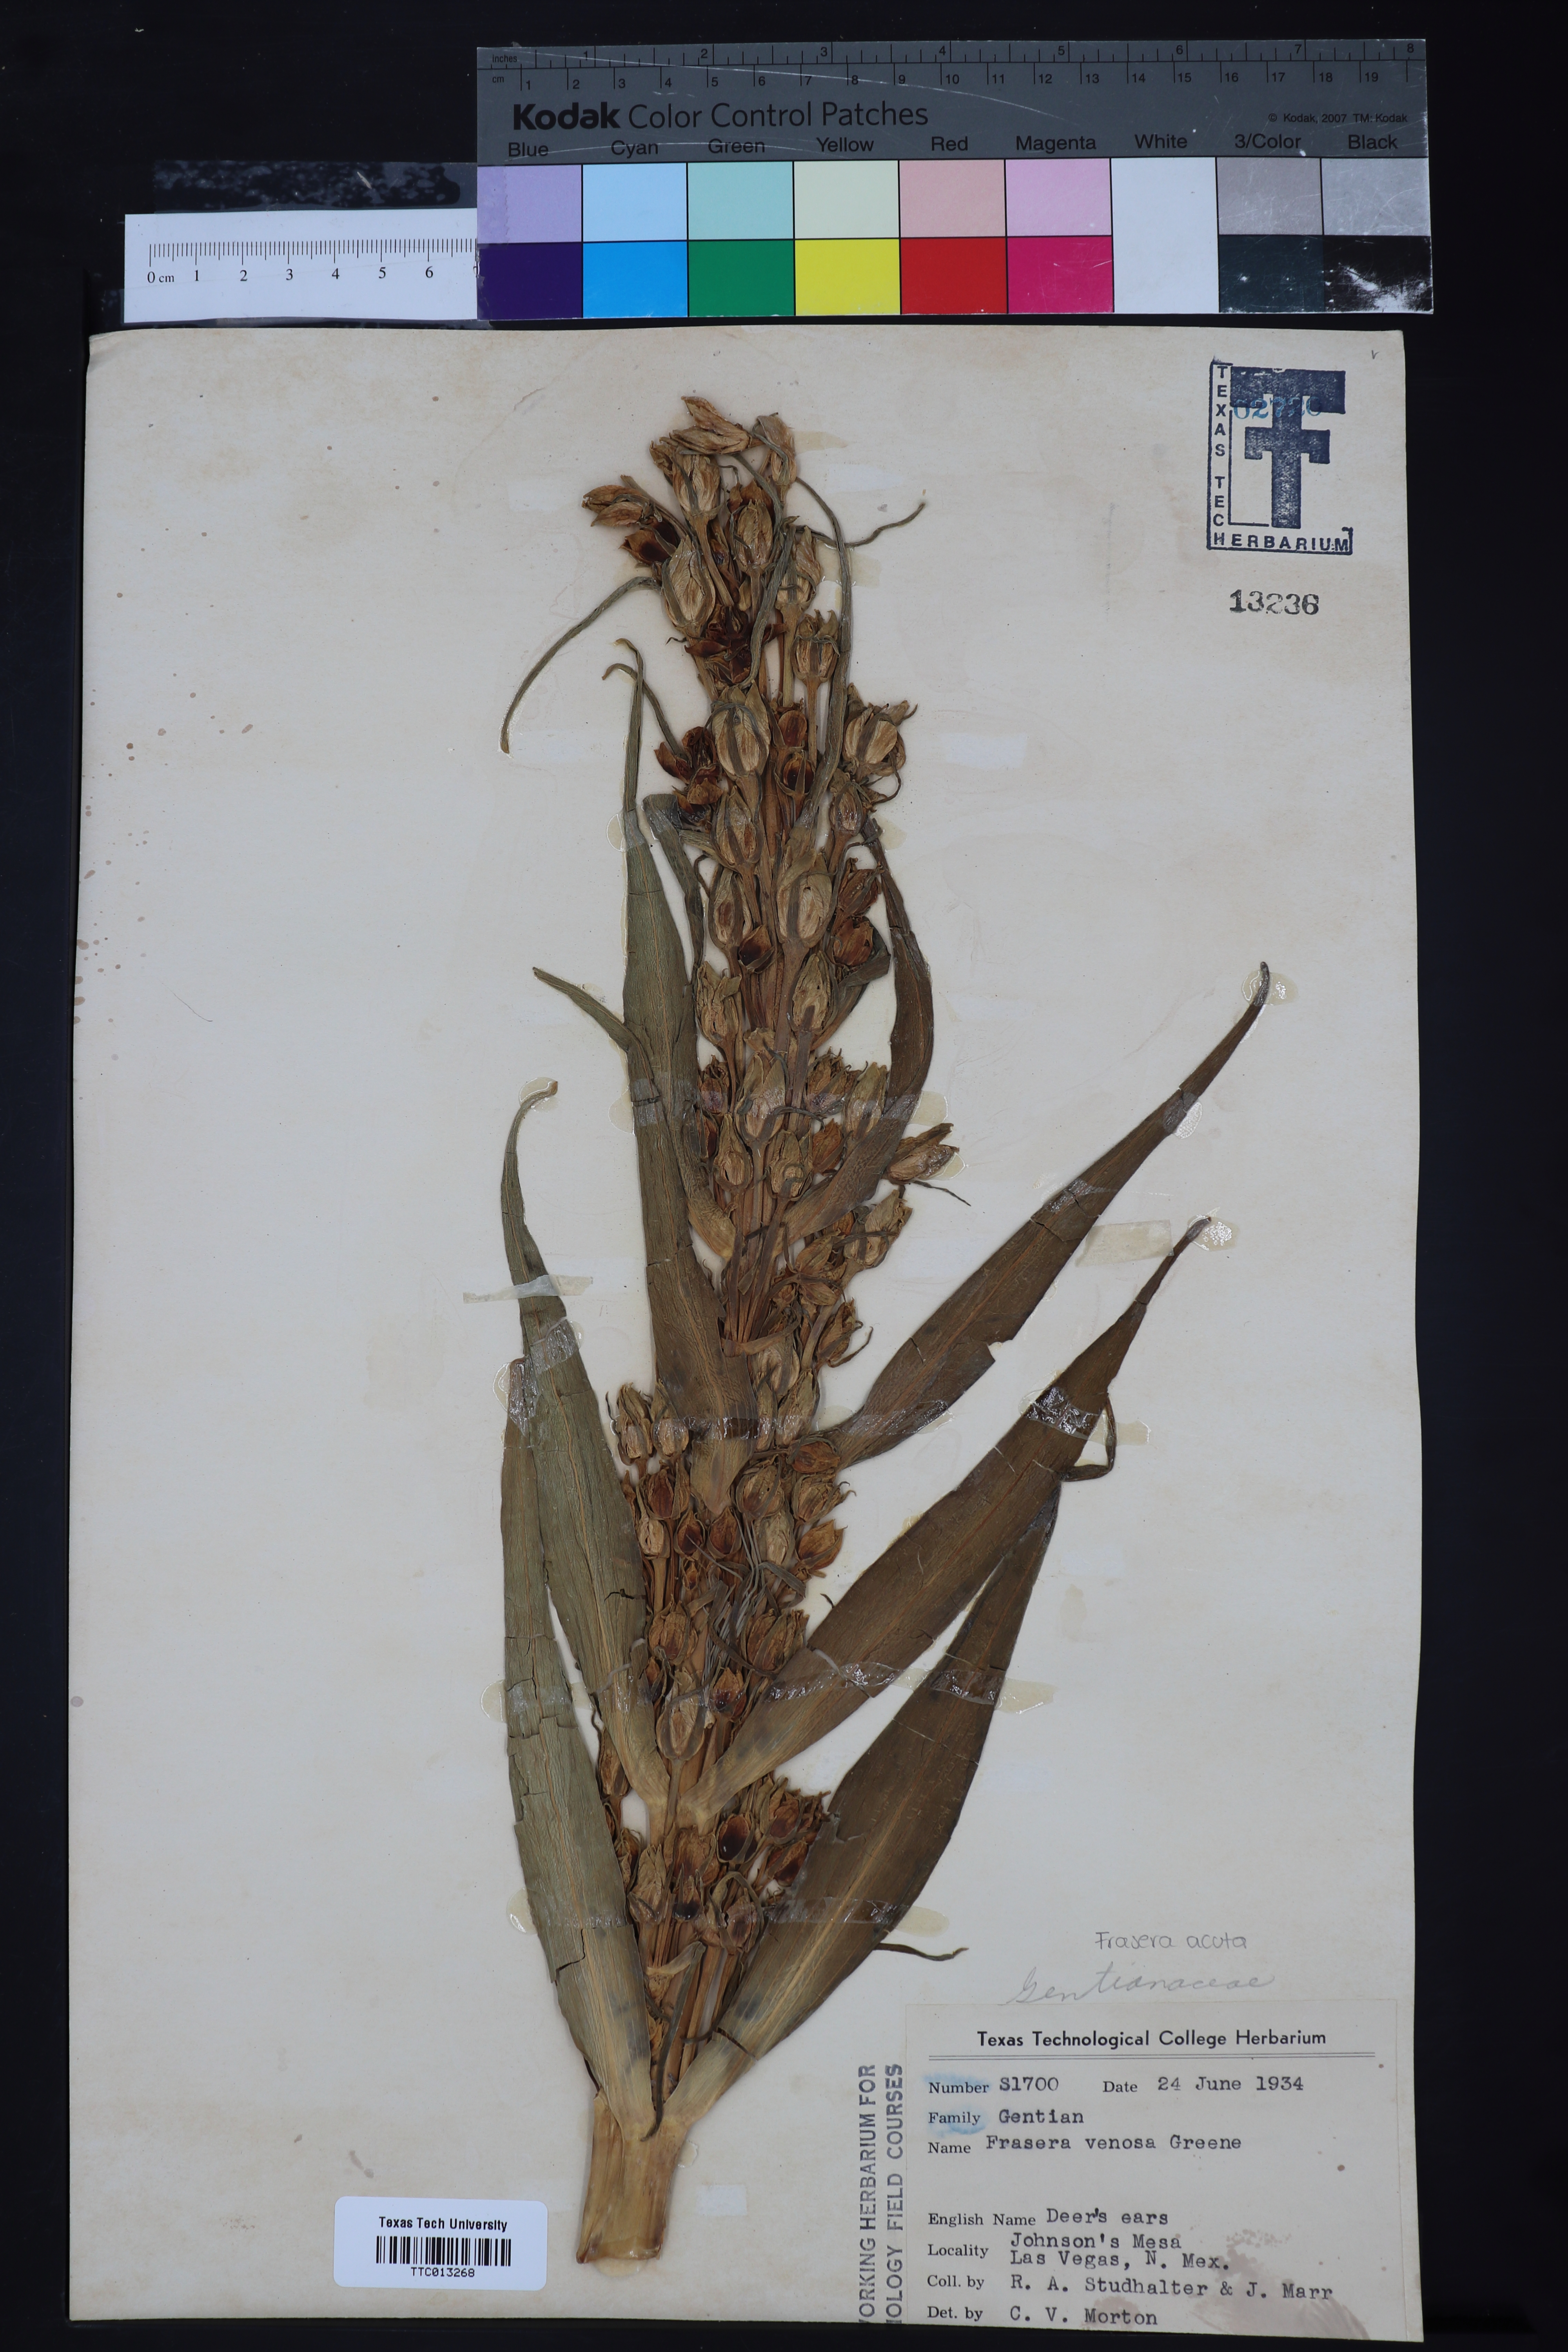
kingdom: Plantae
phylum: Tracheophyta
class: Magnoliopsida
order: Gentianales
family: Gentianaceae
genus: Frasera
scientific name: Frasera speciosa
